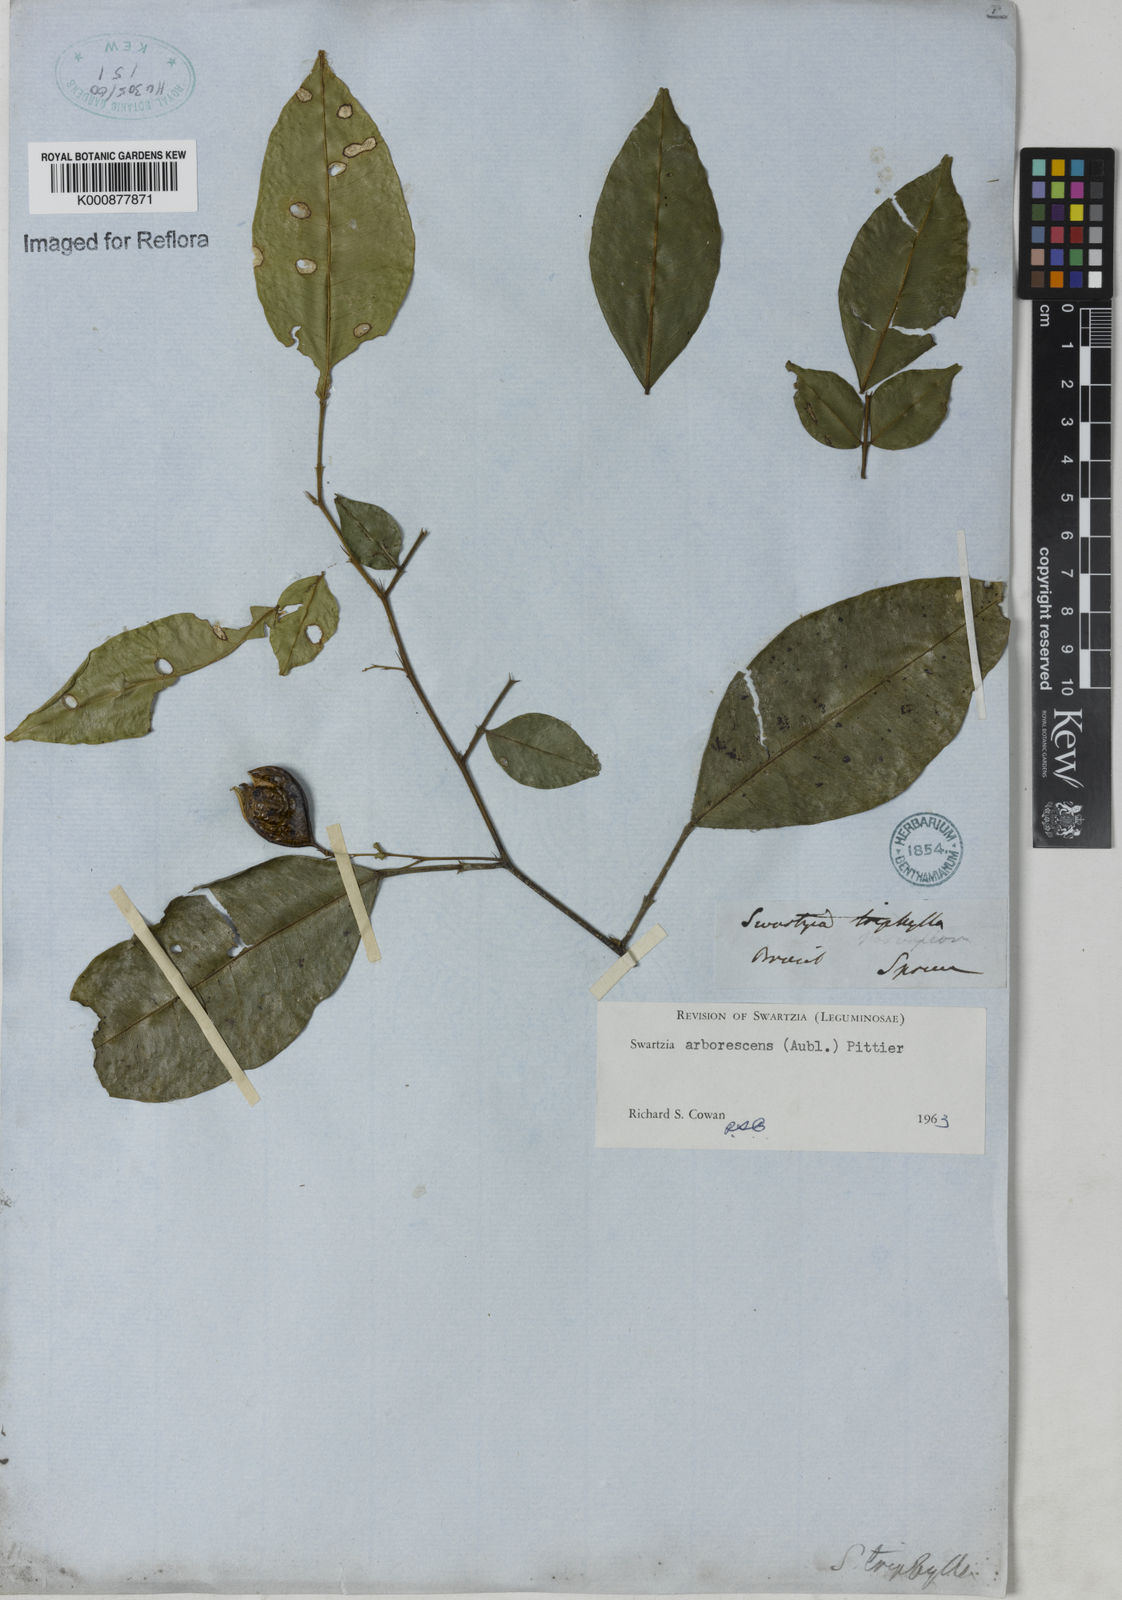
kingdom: Plantae
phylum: Tracheophyta
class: Magnoliopsida
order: Fabales
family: Fabaceae
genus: Swartzia
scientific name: Swartzia arborescens
